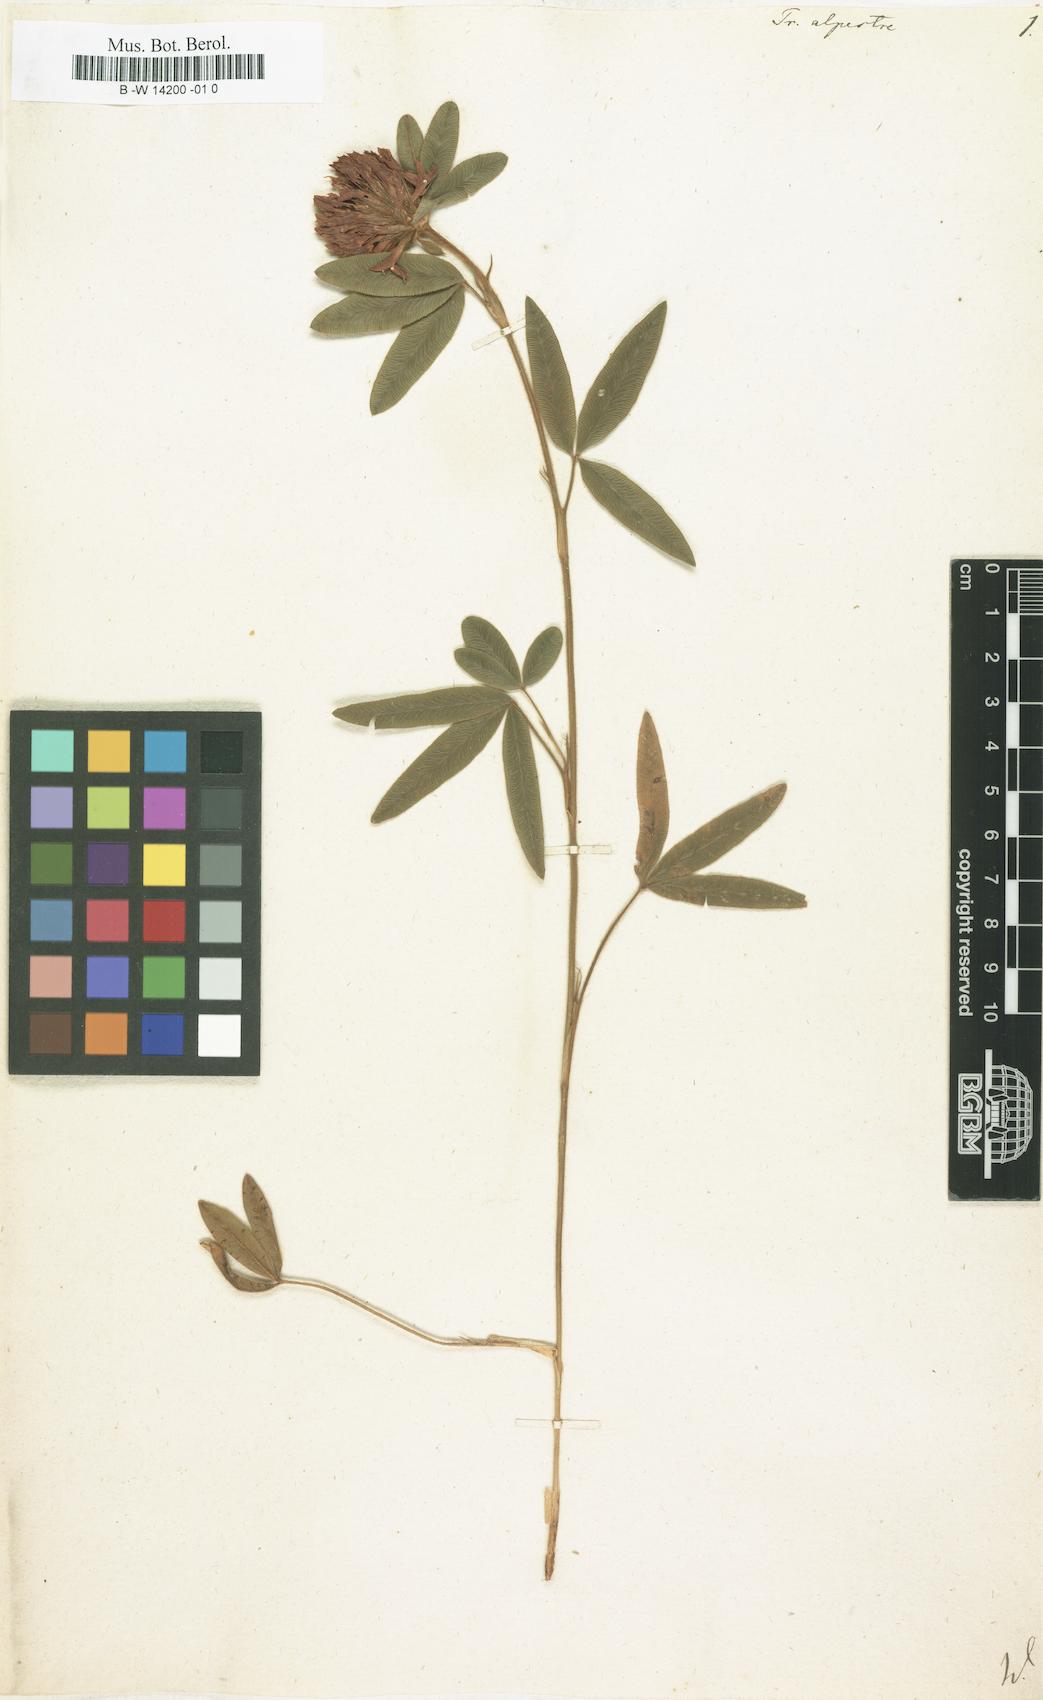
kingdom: Plantae
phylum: Tracheophyta
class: Magnoliopsida
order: Fabales
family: Fabaceae
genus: Trifolium
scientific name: Trifolium alpestre
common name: Owl-head clover
